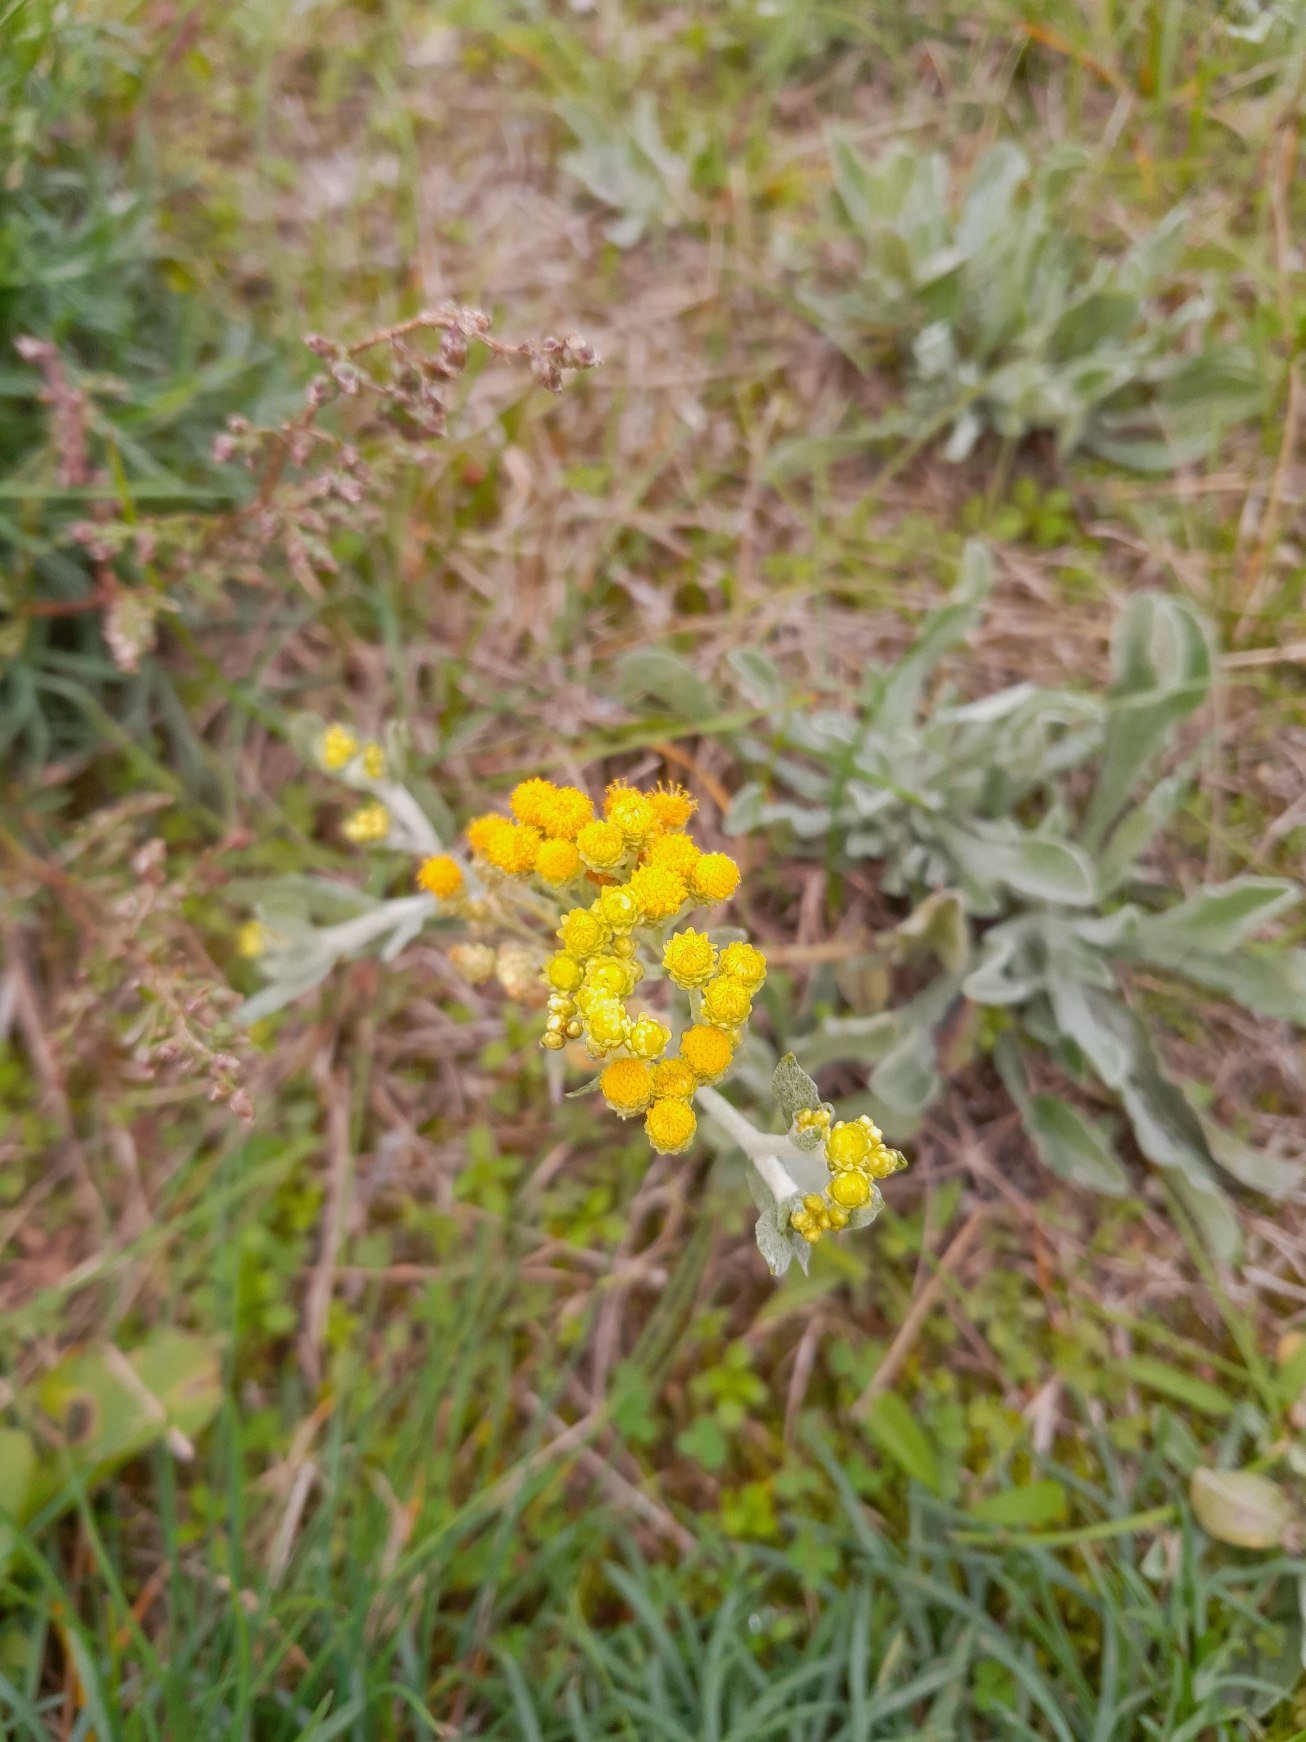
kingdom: Plantae
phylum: Tracheophyta
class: Magnoliopsida
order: Asterales
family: Asteraceae
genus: Helichrysum
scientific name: Helichrysum arenarium
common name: Gul evighedsblomst
